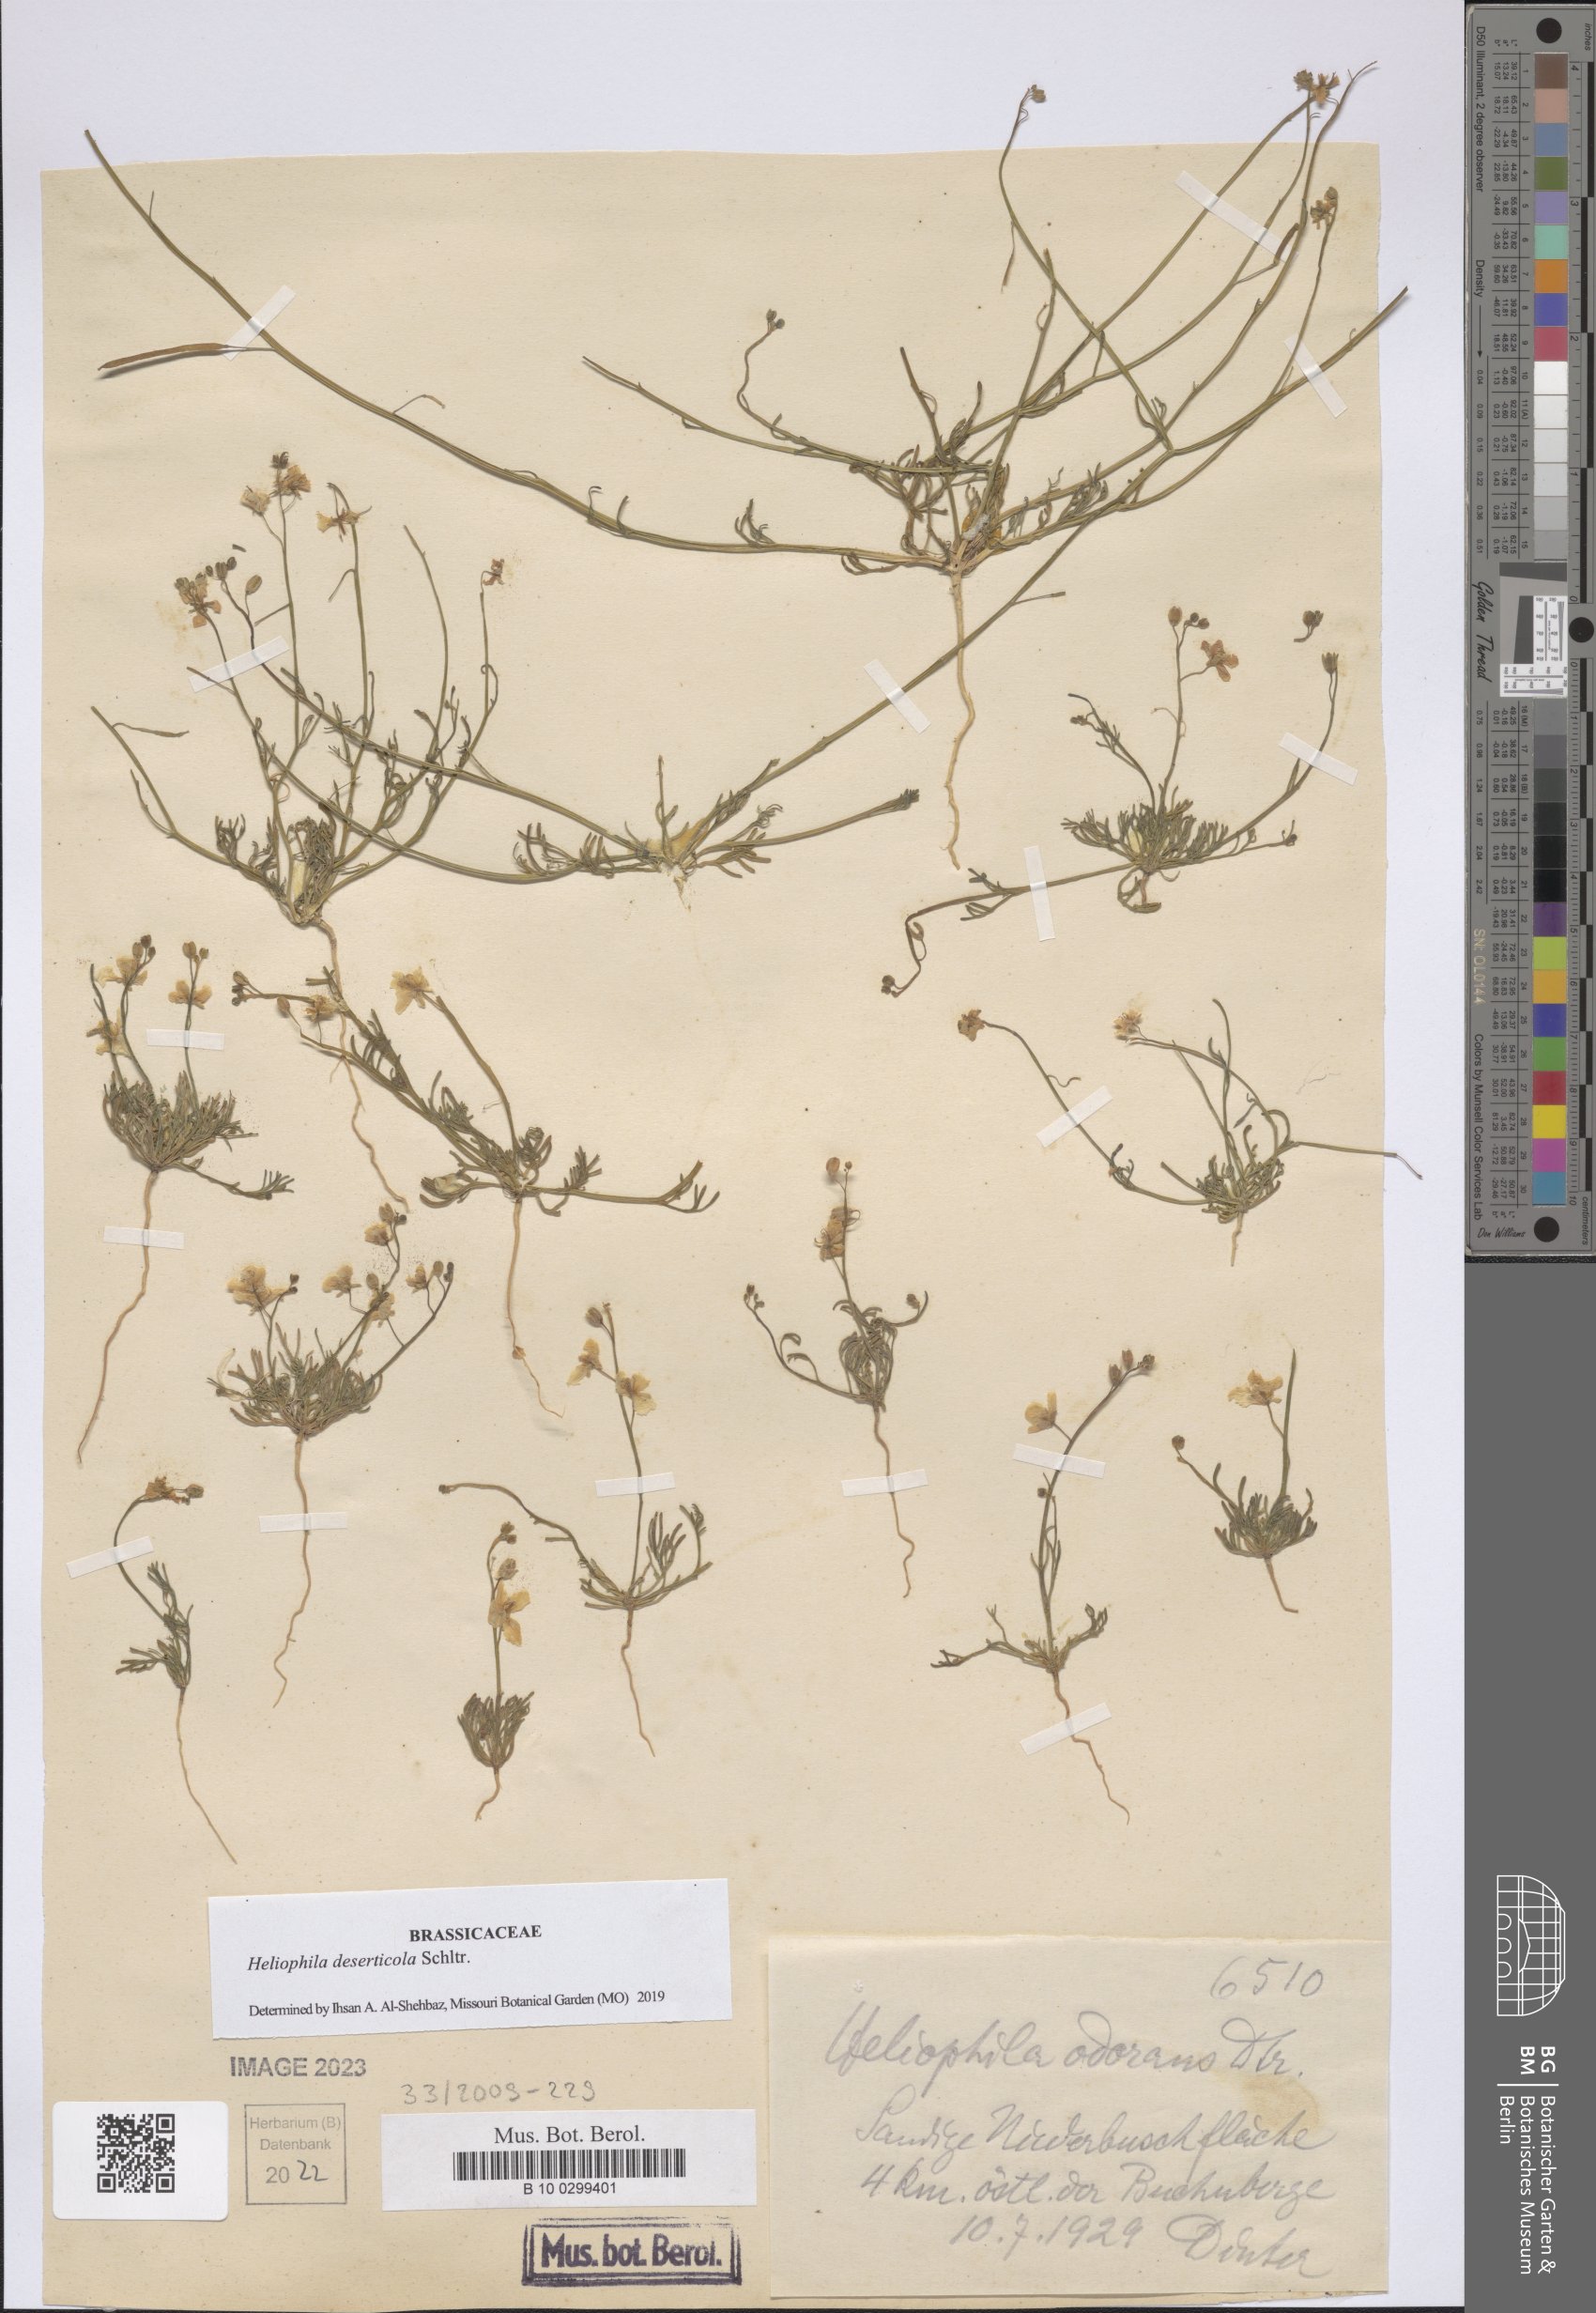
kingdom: Plantae
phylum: Tracheophyta
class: Magnoliopsida
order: Brassicales
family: Brassicaceae
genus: Heliophila
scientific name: Heliophila deserticola
